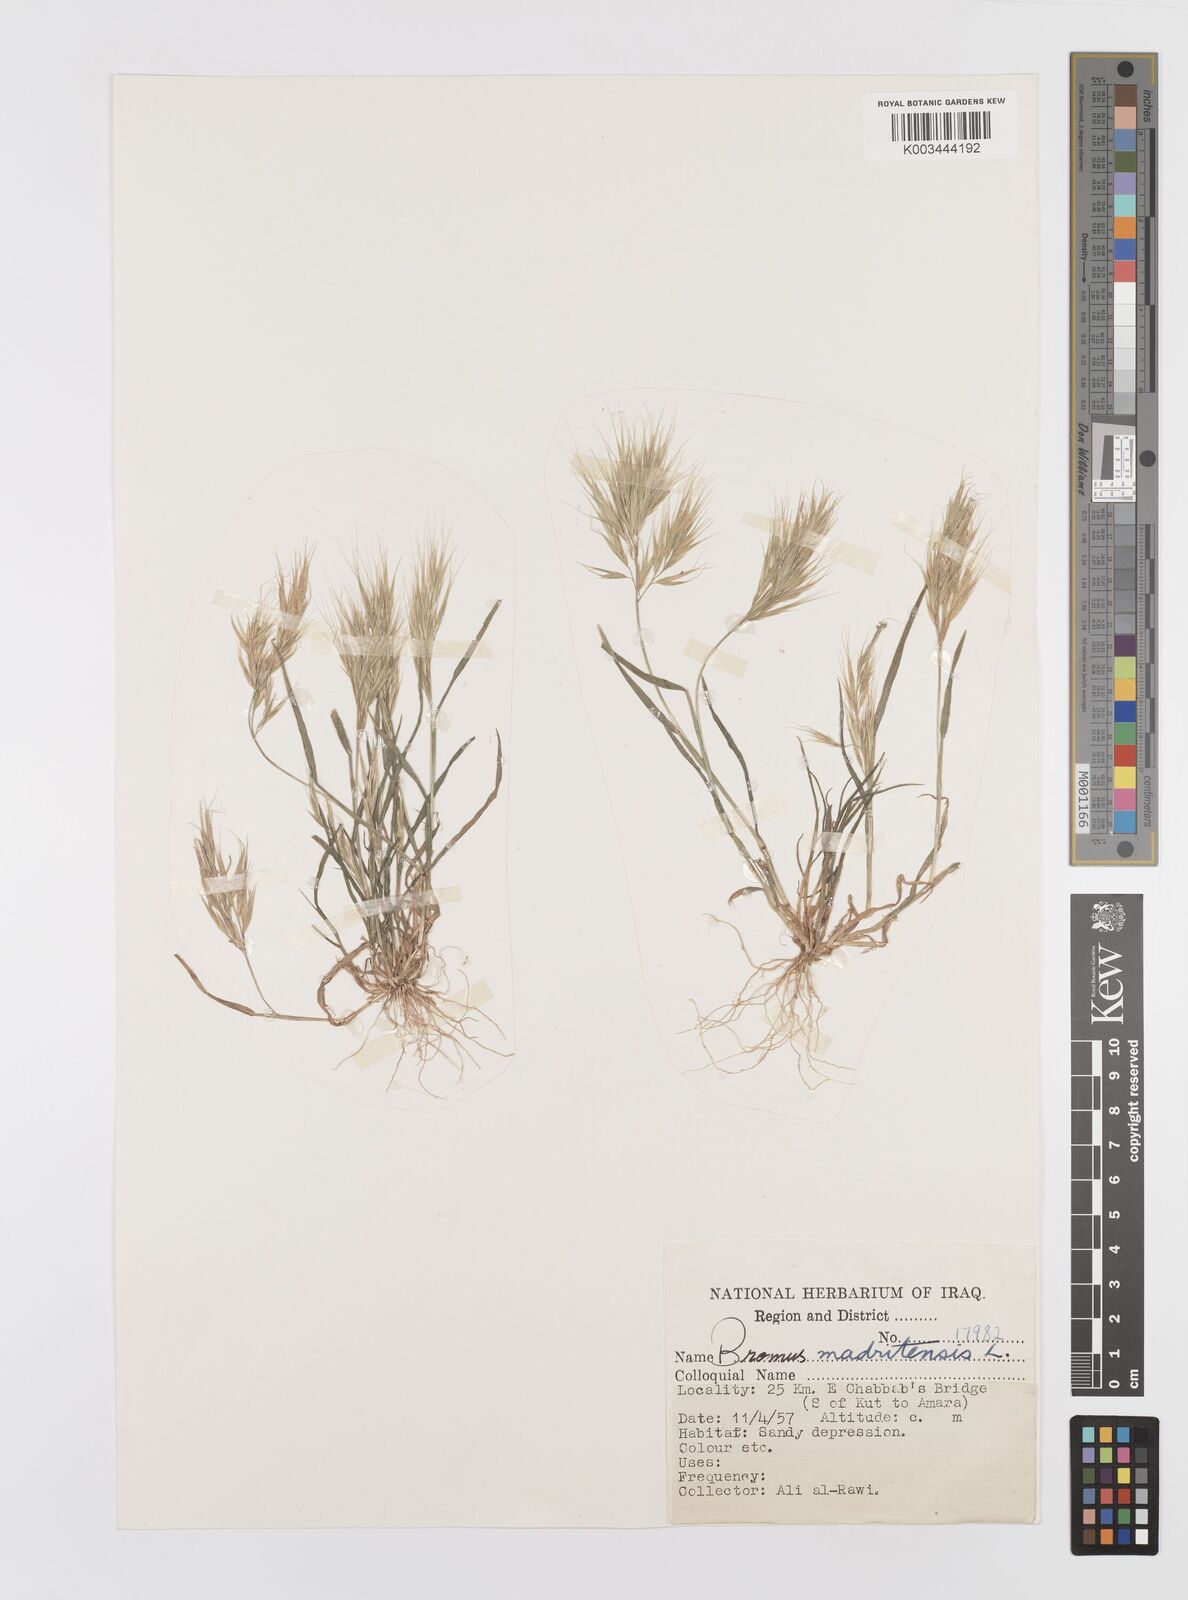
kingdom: Plantae
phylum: Tracheophyta
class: Liliopsida
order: Poales
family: Poaceae
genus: Bromus
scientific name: Bromus madritensis
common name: Compact brome
